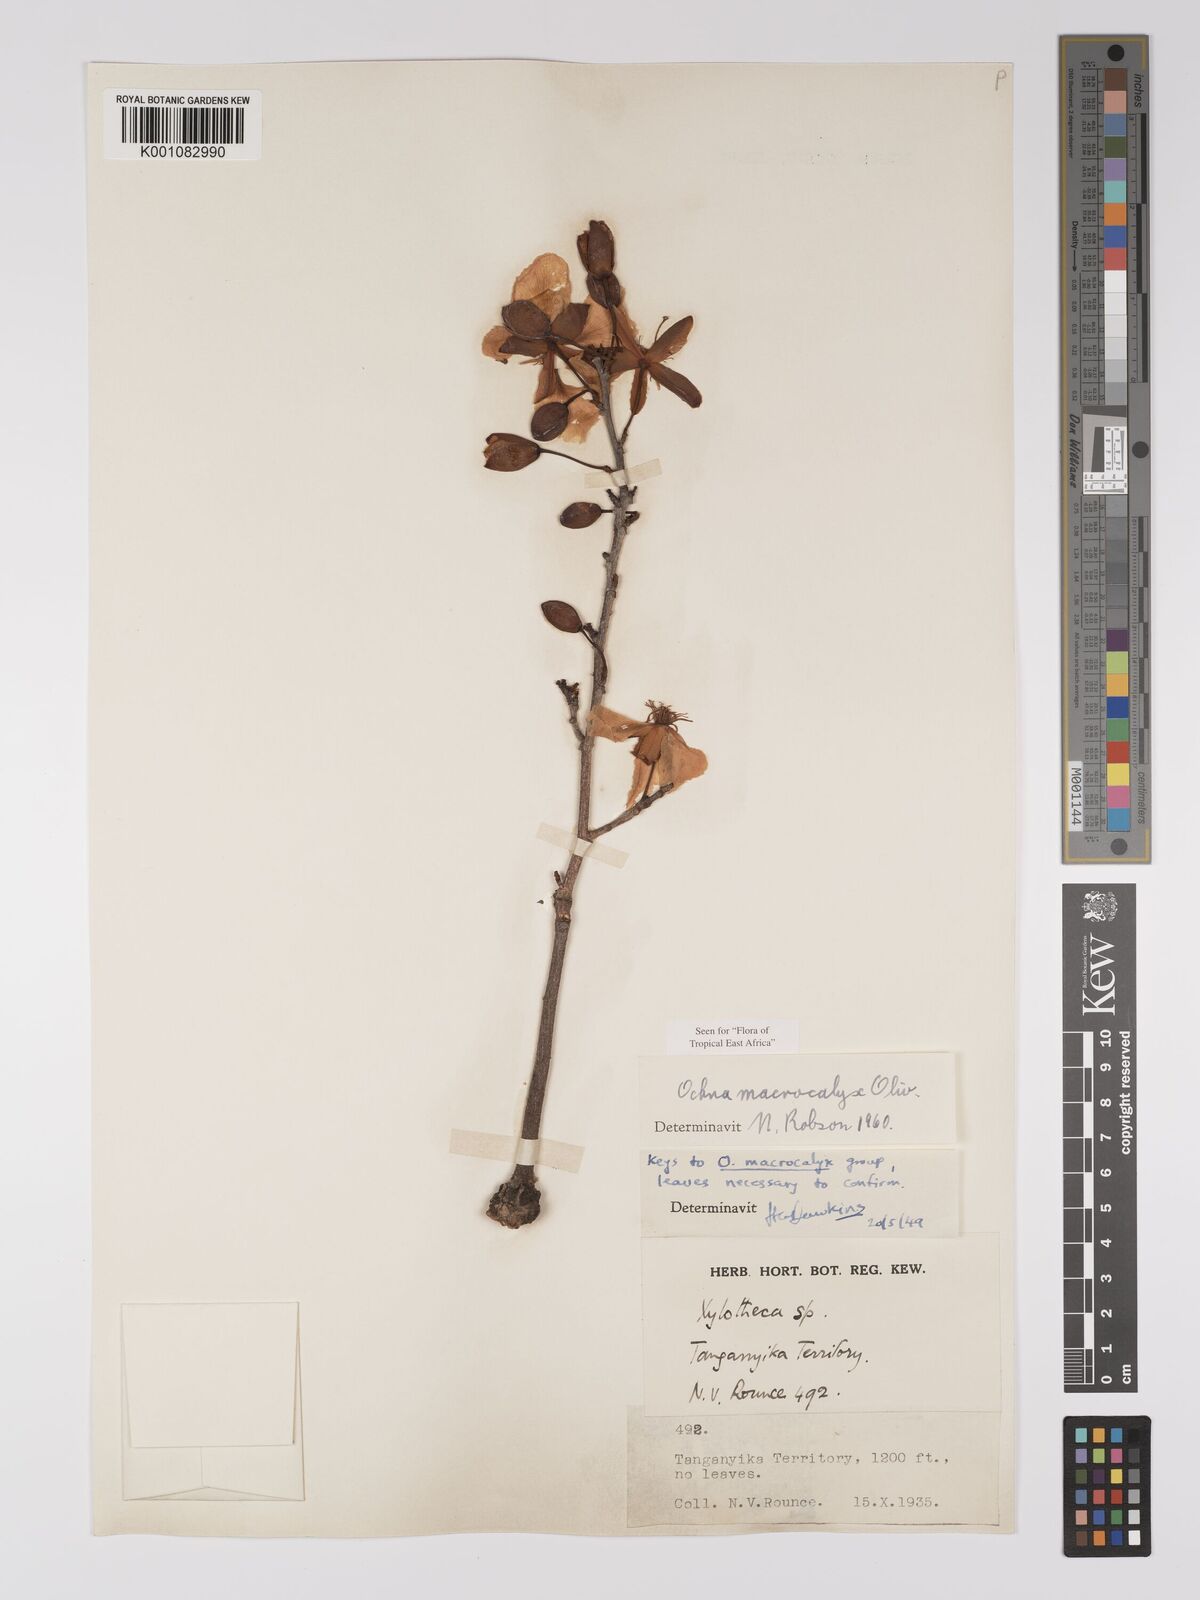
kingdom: Plantae
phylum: Tracheophyta
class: Magnoliopsida
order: Malpighiales
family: Ochnaceae
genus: Ochna
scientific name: Ochna macrocalyx
